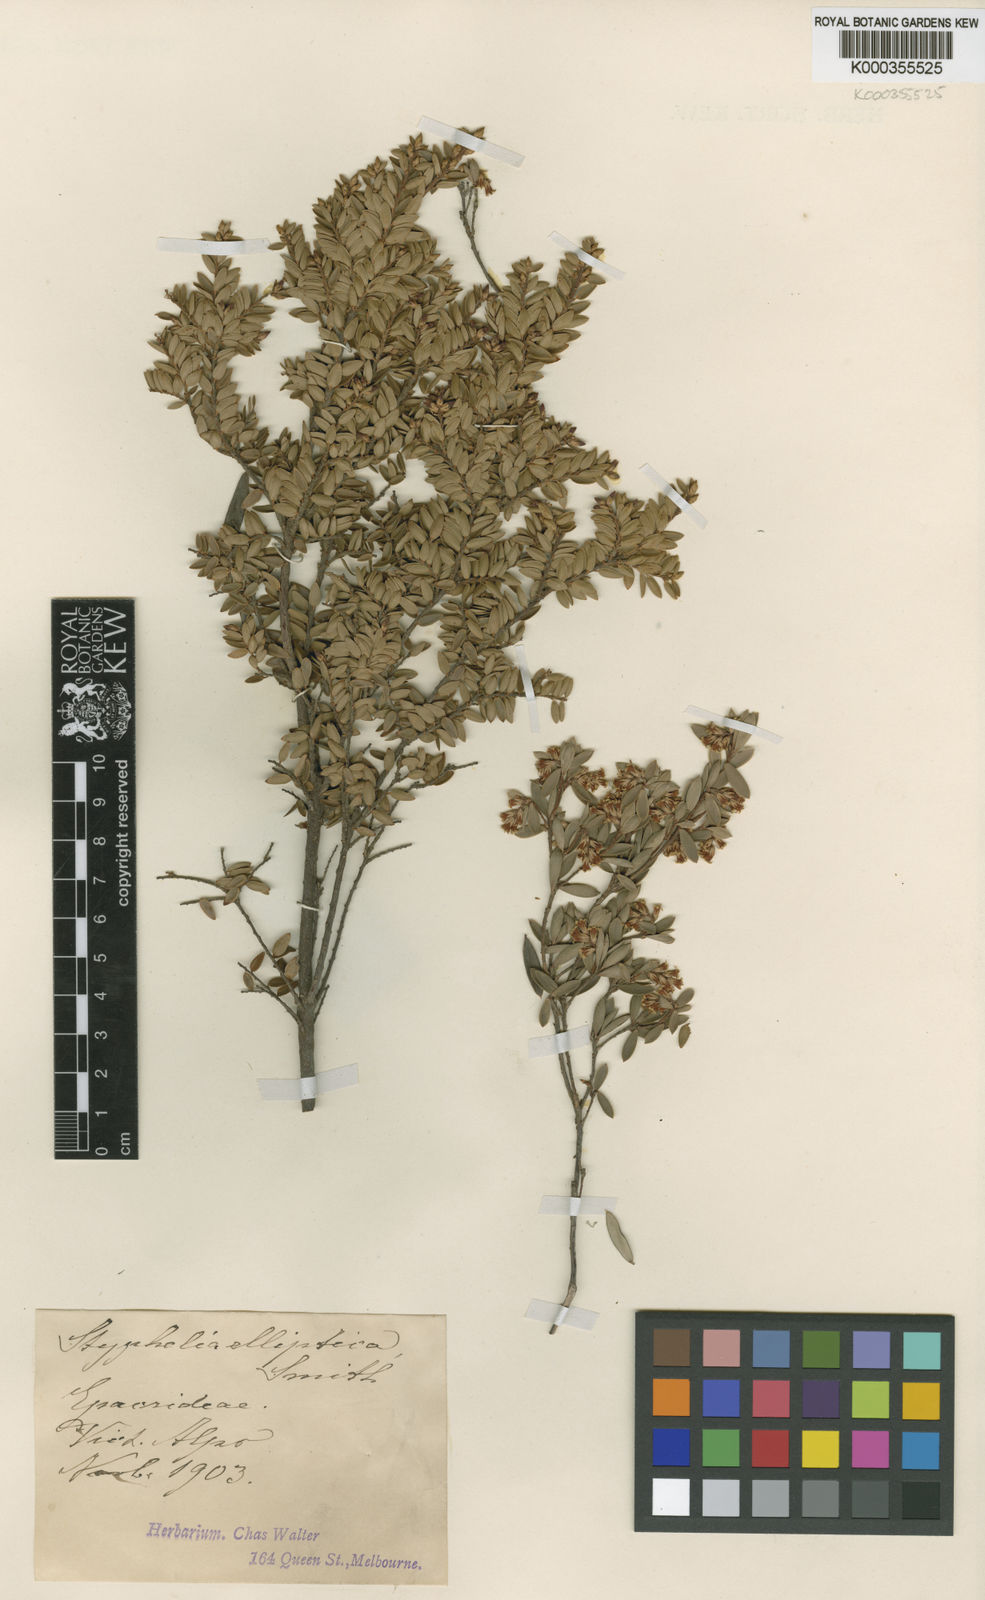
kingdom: Plantae
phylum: Tracheophyta
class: Magnoliopsida
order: Ericales
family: Ericaceae
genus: Monotoca
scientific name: Monotoca elliptica
